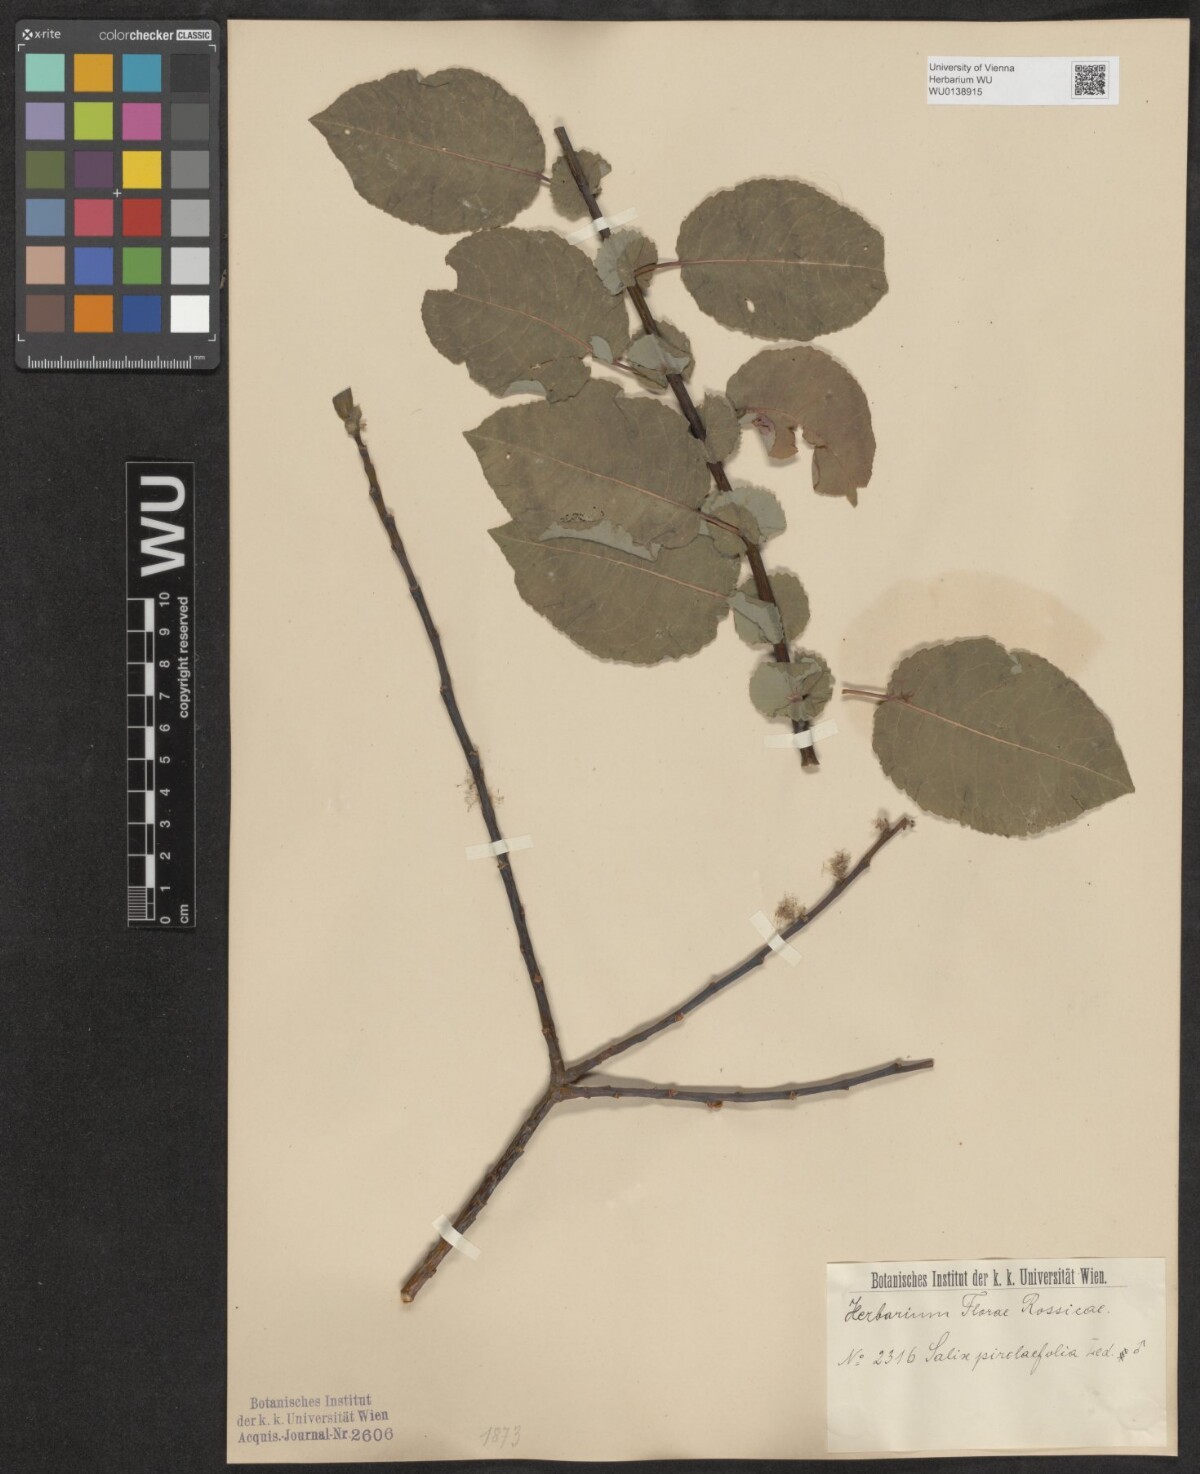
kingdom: Plantae
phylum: Tracheophyta
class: Magnoliopsida
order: Malpighiales
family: Salicaceae
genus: Salix
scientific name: Salix pyrolifolia
